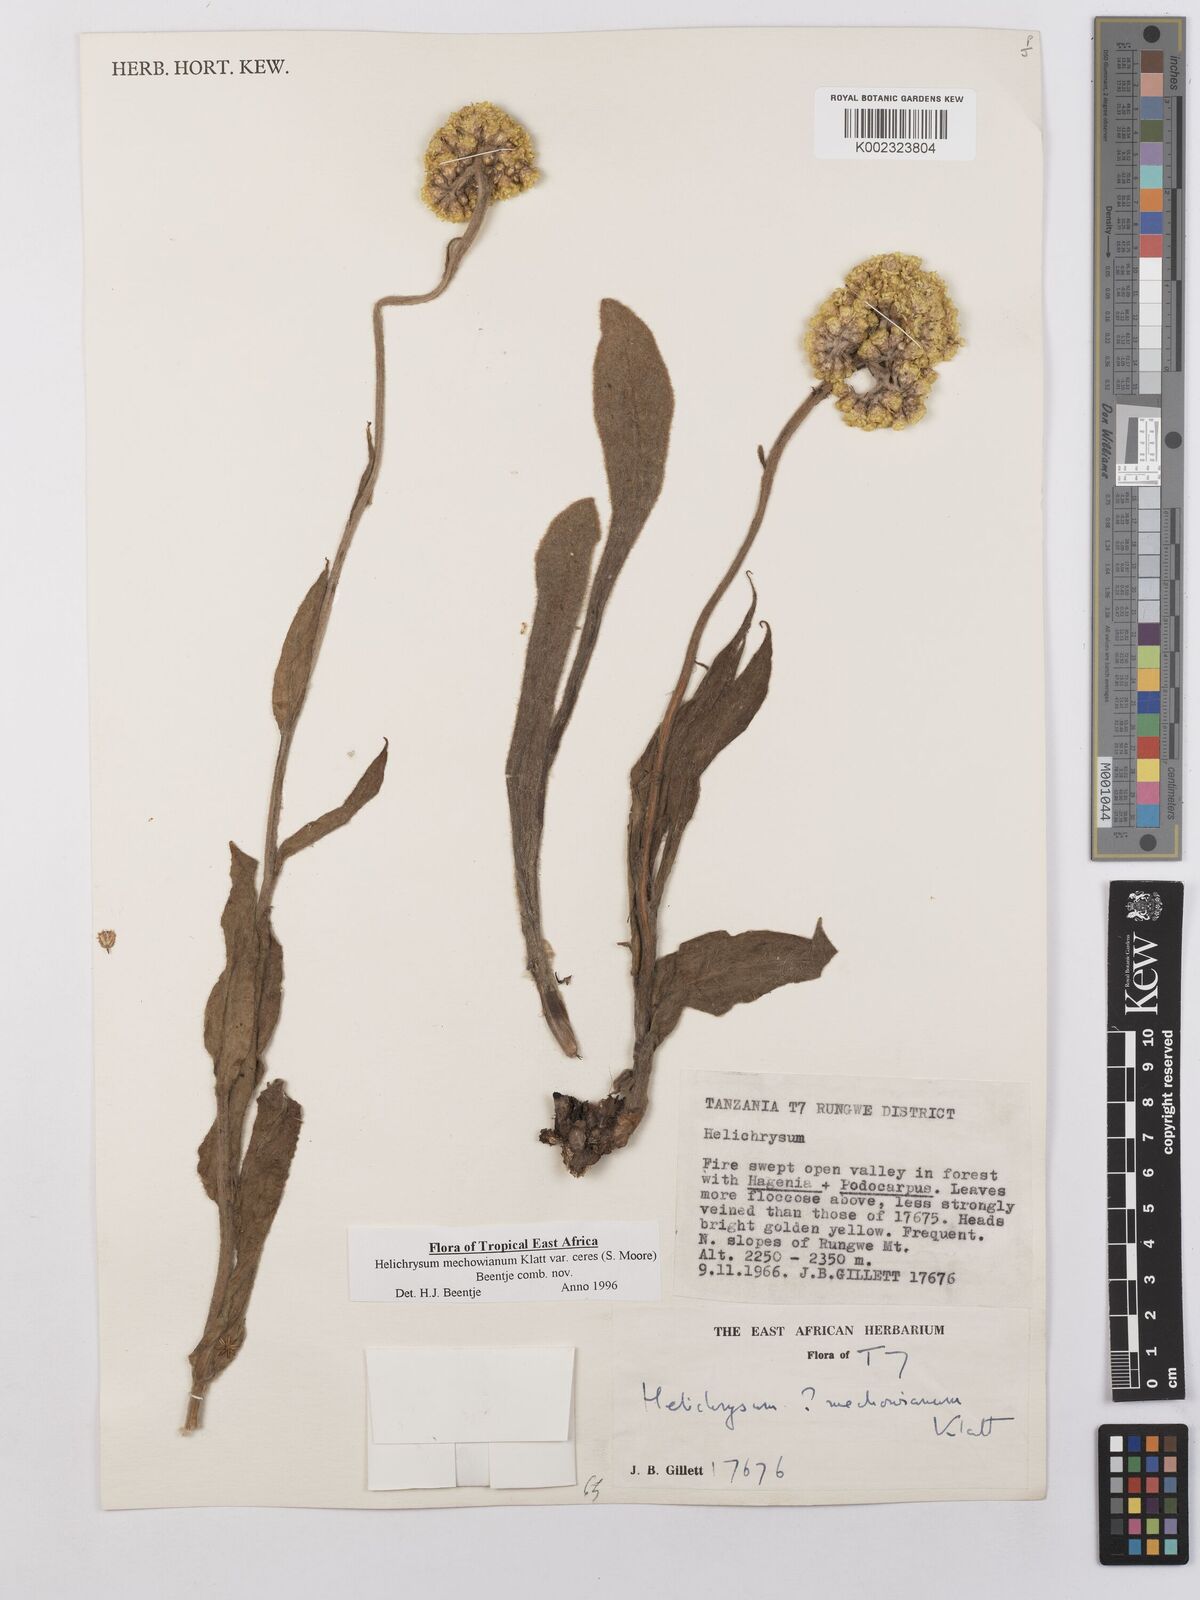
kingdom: Plantae
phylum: Tracheophyta
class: Magnoliopsida
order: Asterales
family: Asteraceae
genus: Helichrysum
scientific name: Helichrysum mechowianum
